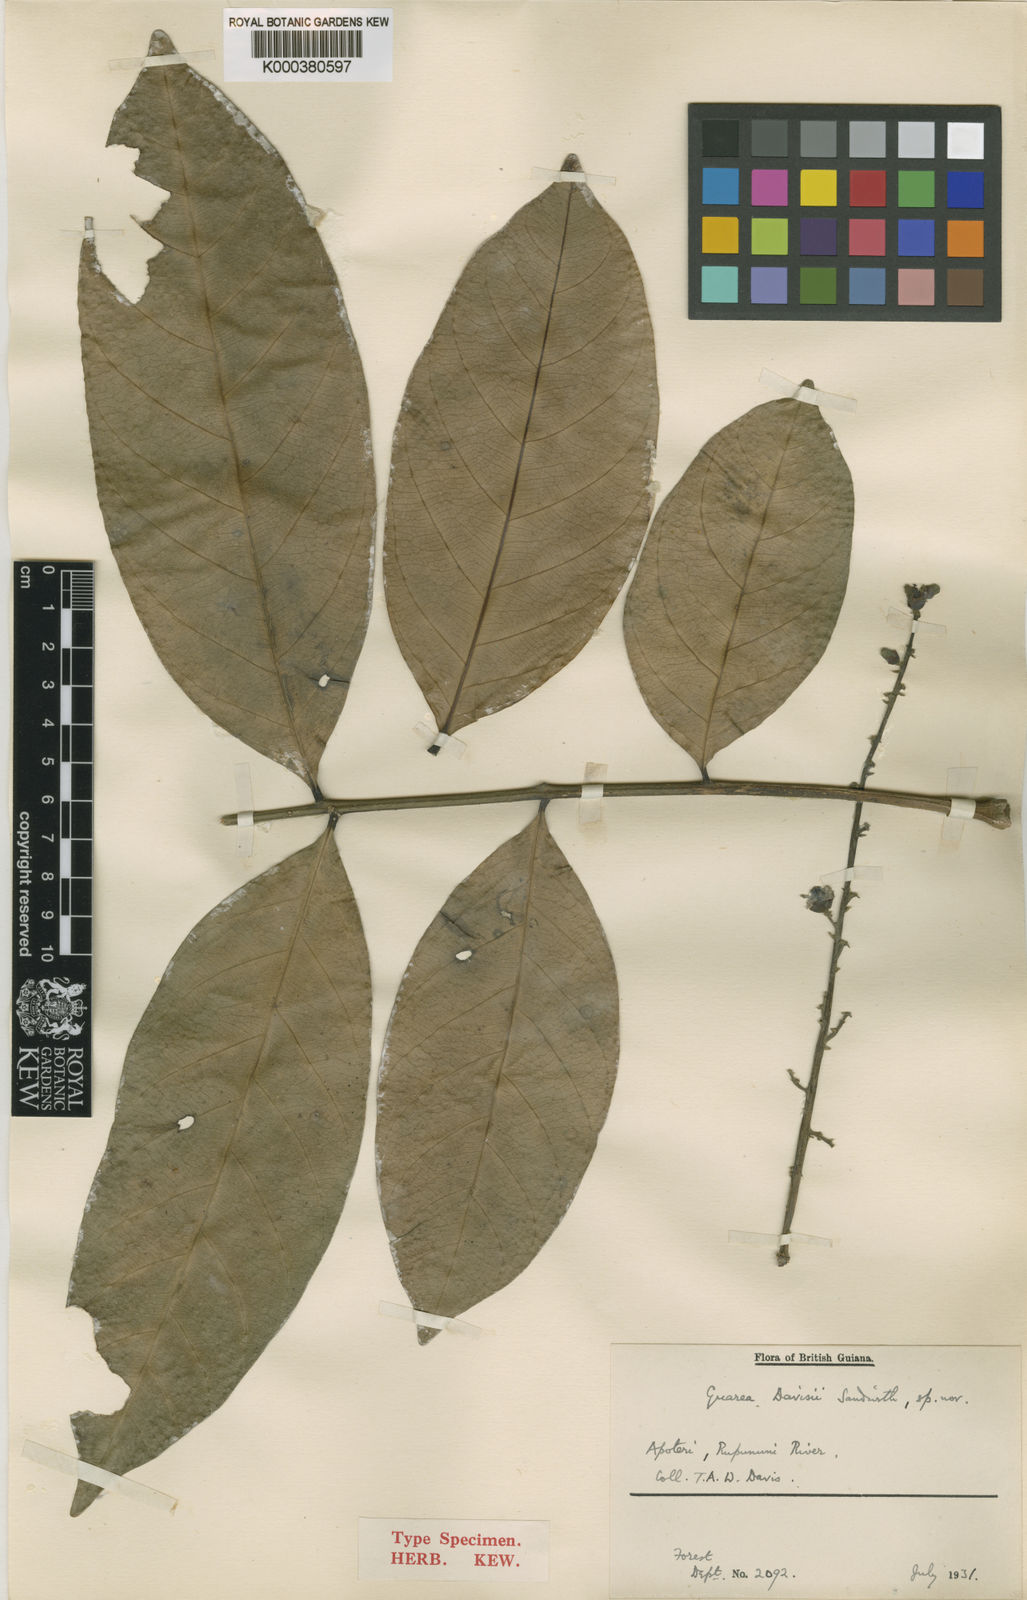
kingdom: Plantae
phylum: Tracheophyta
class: Magnoliopsida
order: Sapindales
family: Meliaceae
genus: Guarea
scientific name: Guarea pubescens
